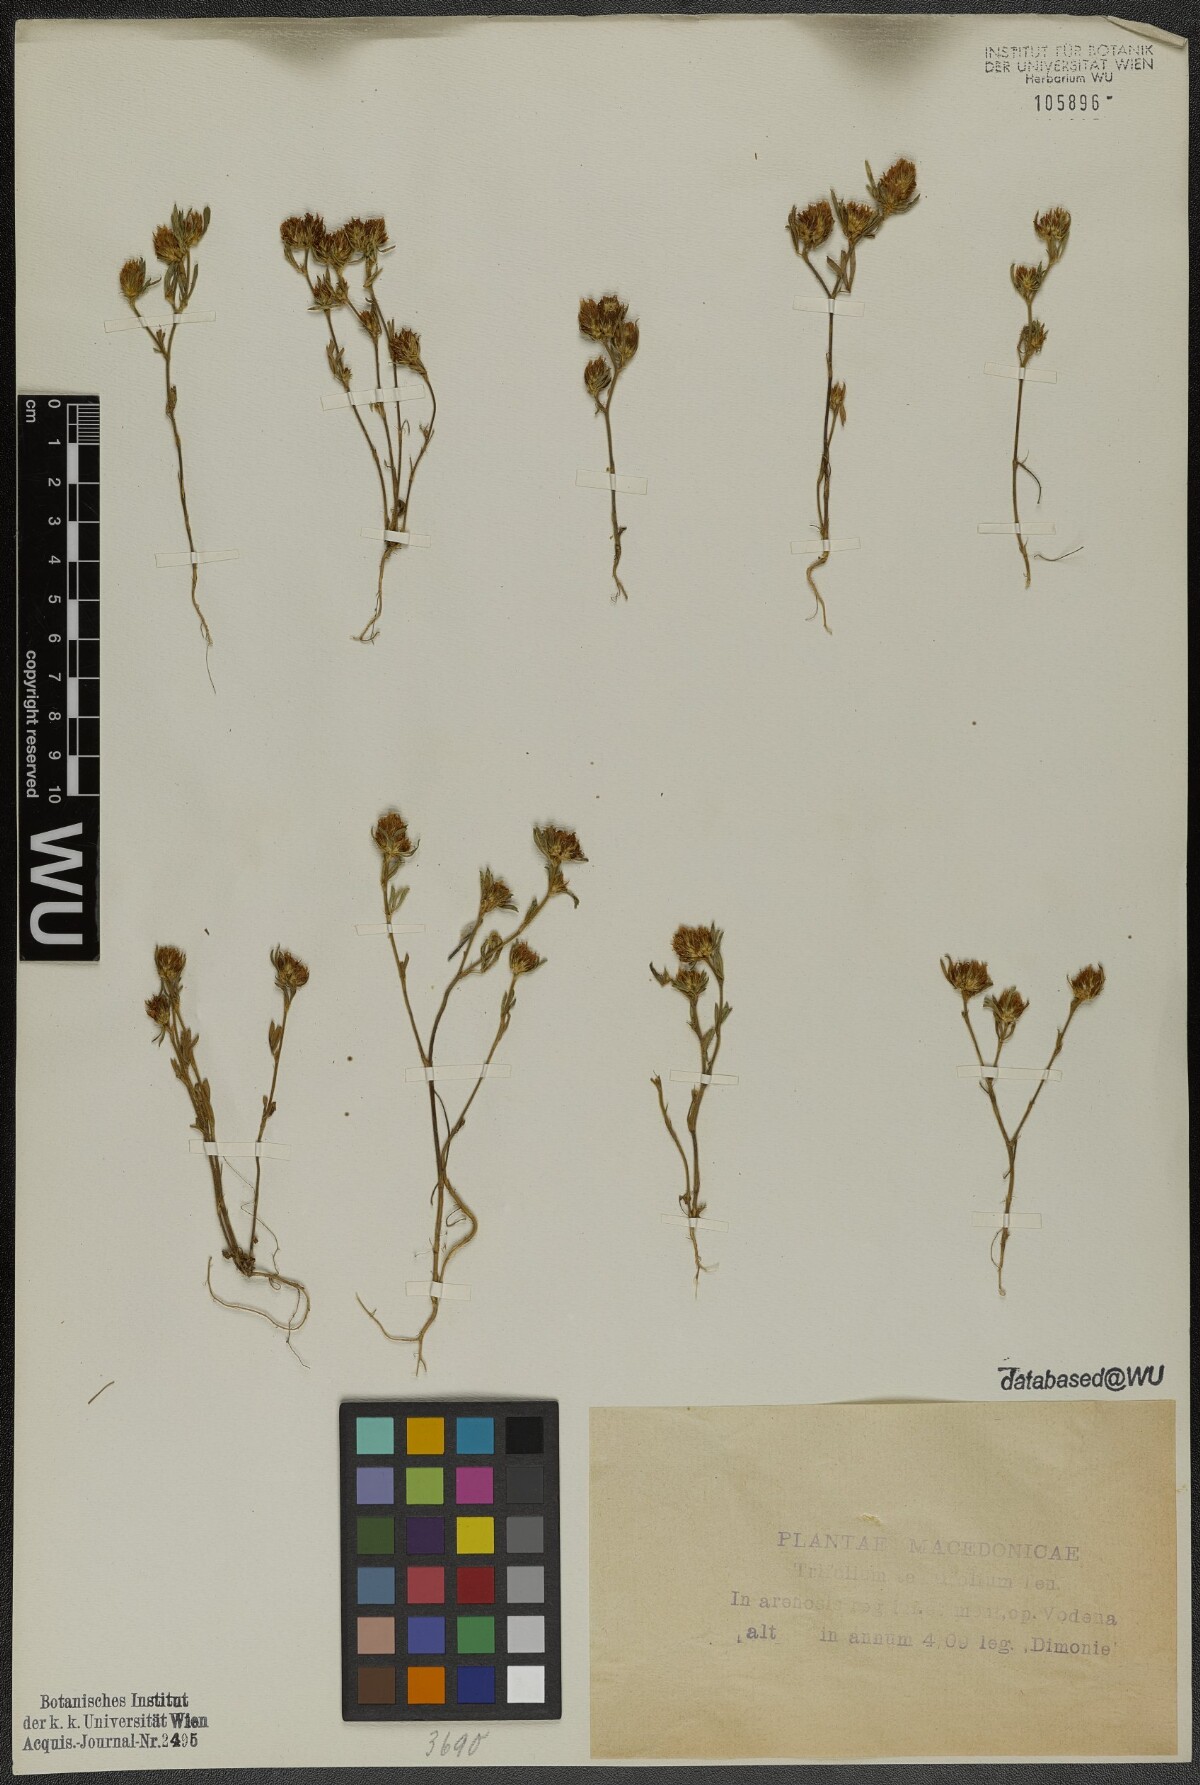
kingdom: Plantae
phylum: Tracheophyta
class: Magnoliopsida
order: Fabales
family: Fabaceae
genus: Trifolium
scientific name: Trifolium tenuifolium
